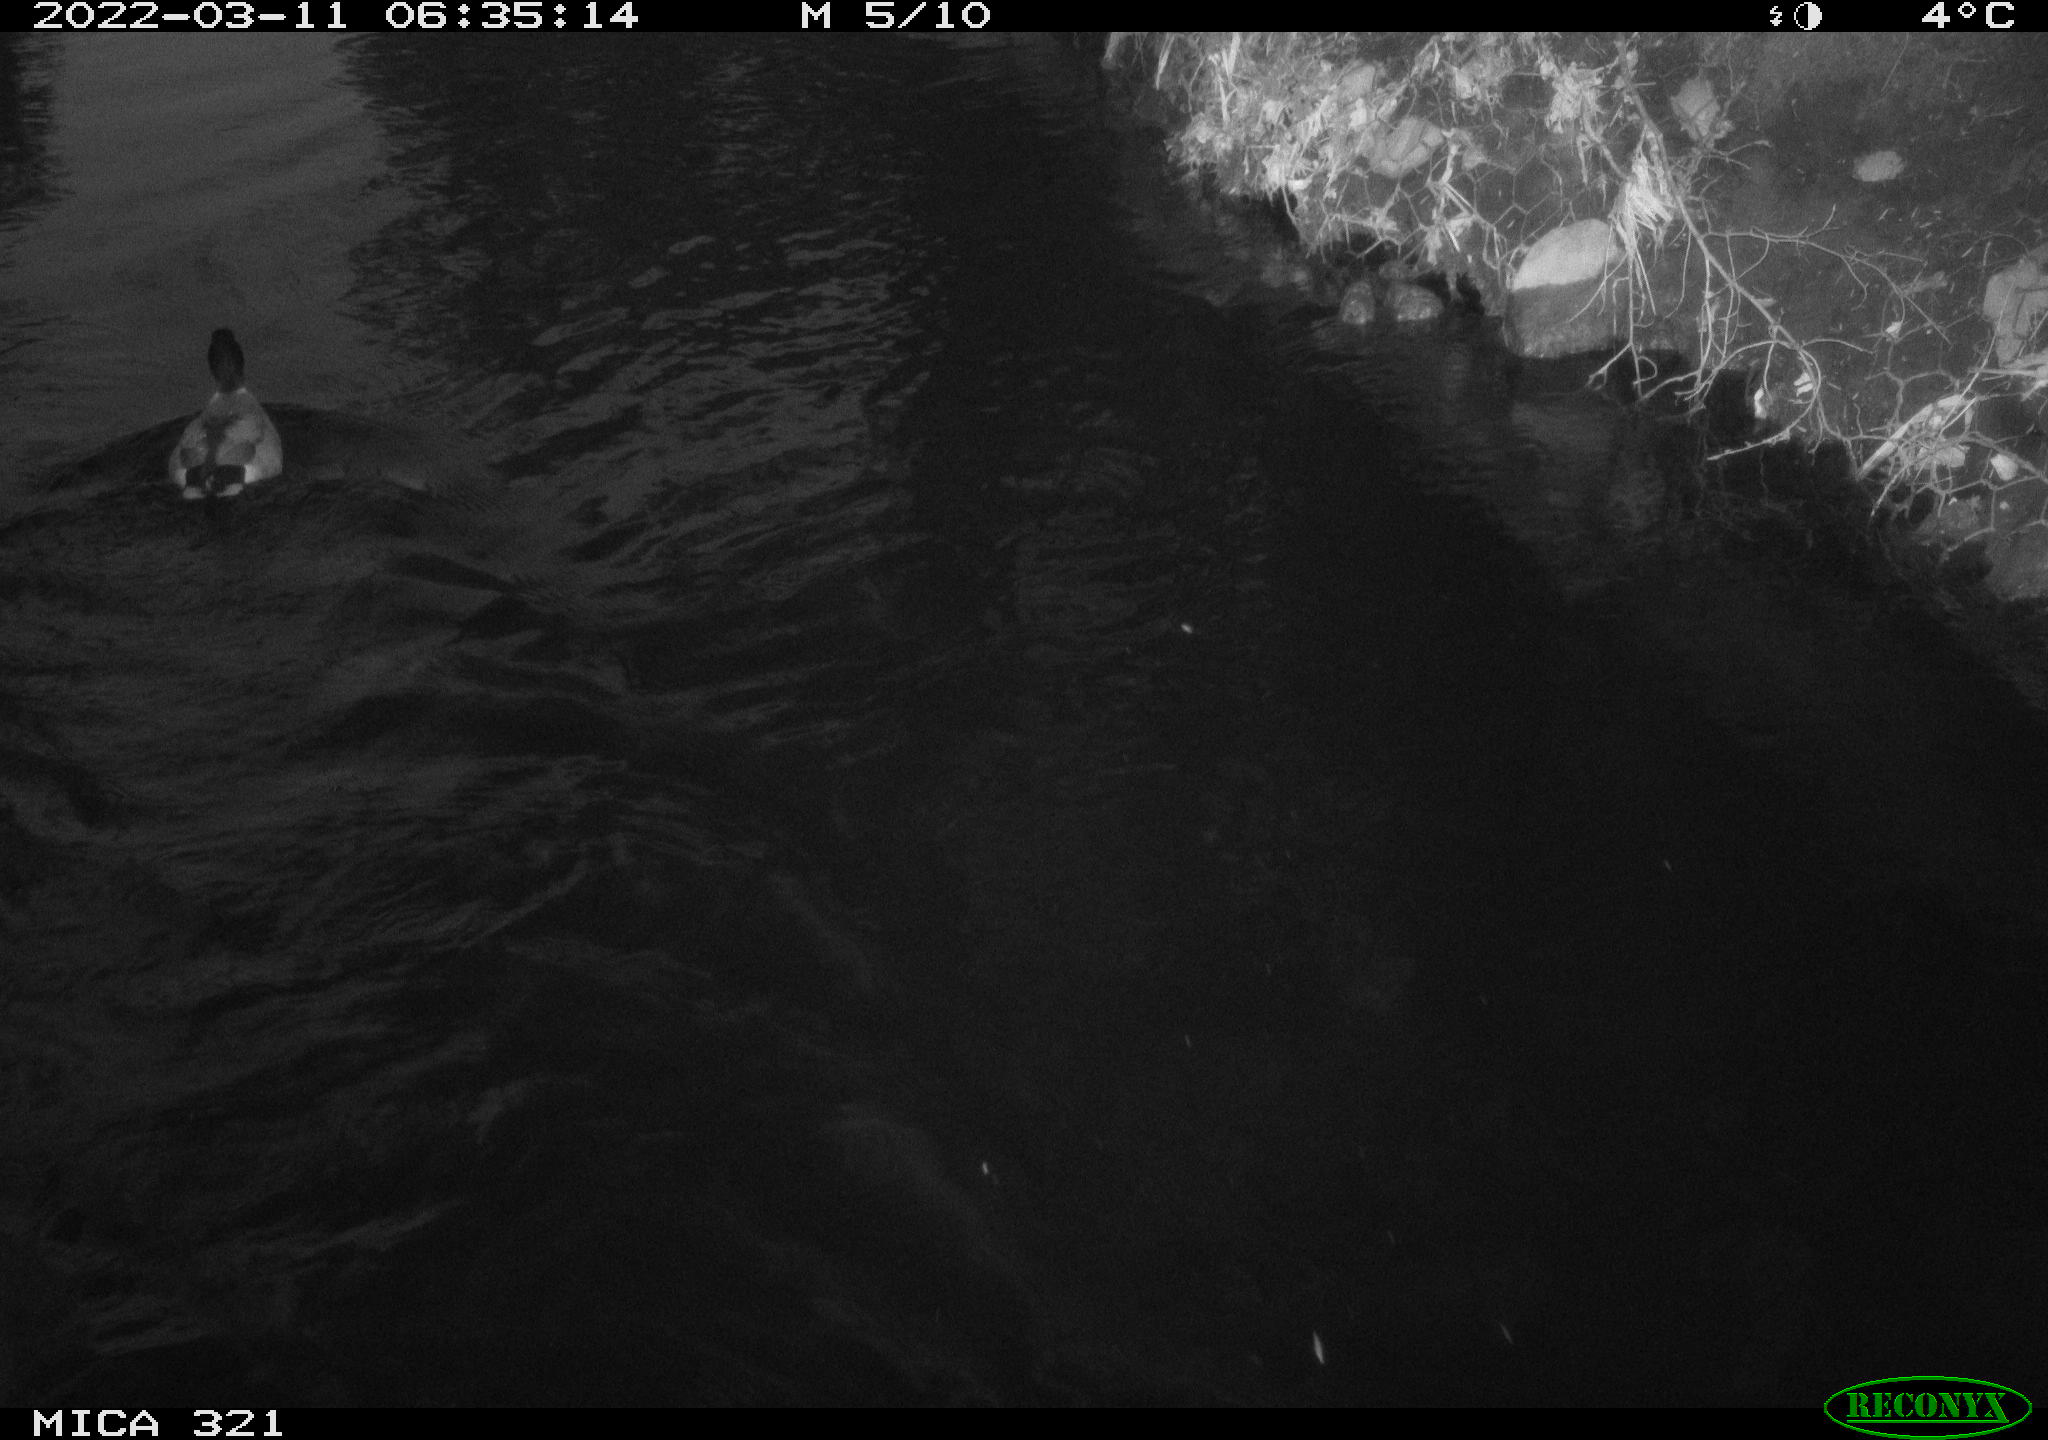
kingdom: Animalia
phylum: Chordata
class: Aves
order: Anseriformes
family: Anatidae
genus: Anas
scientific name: Anas platyrhynchos
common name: Mallard
